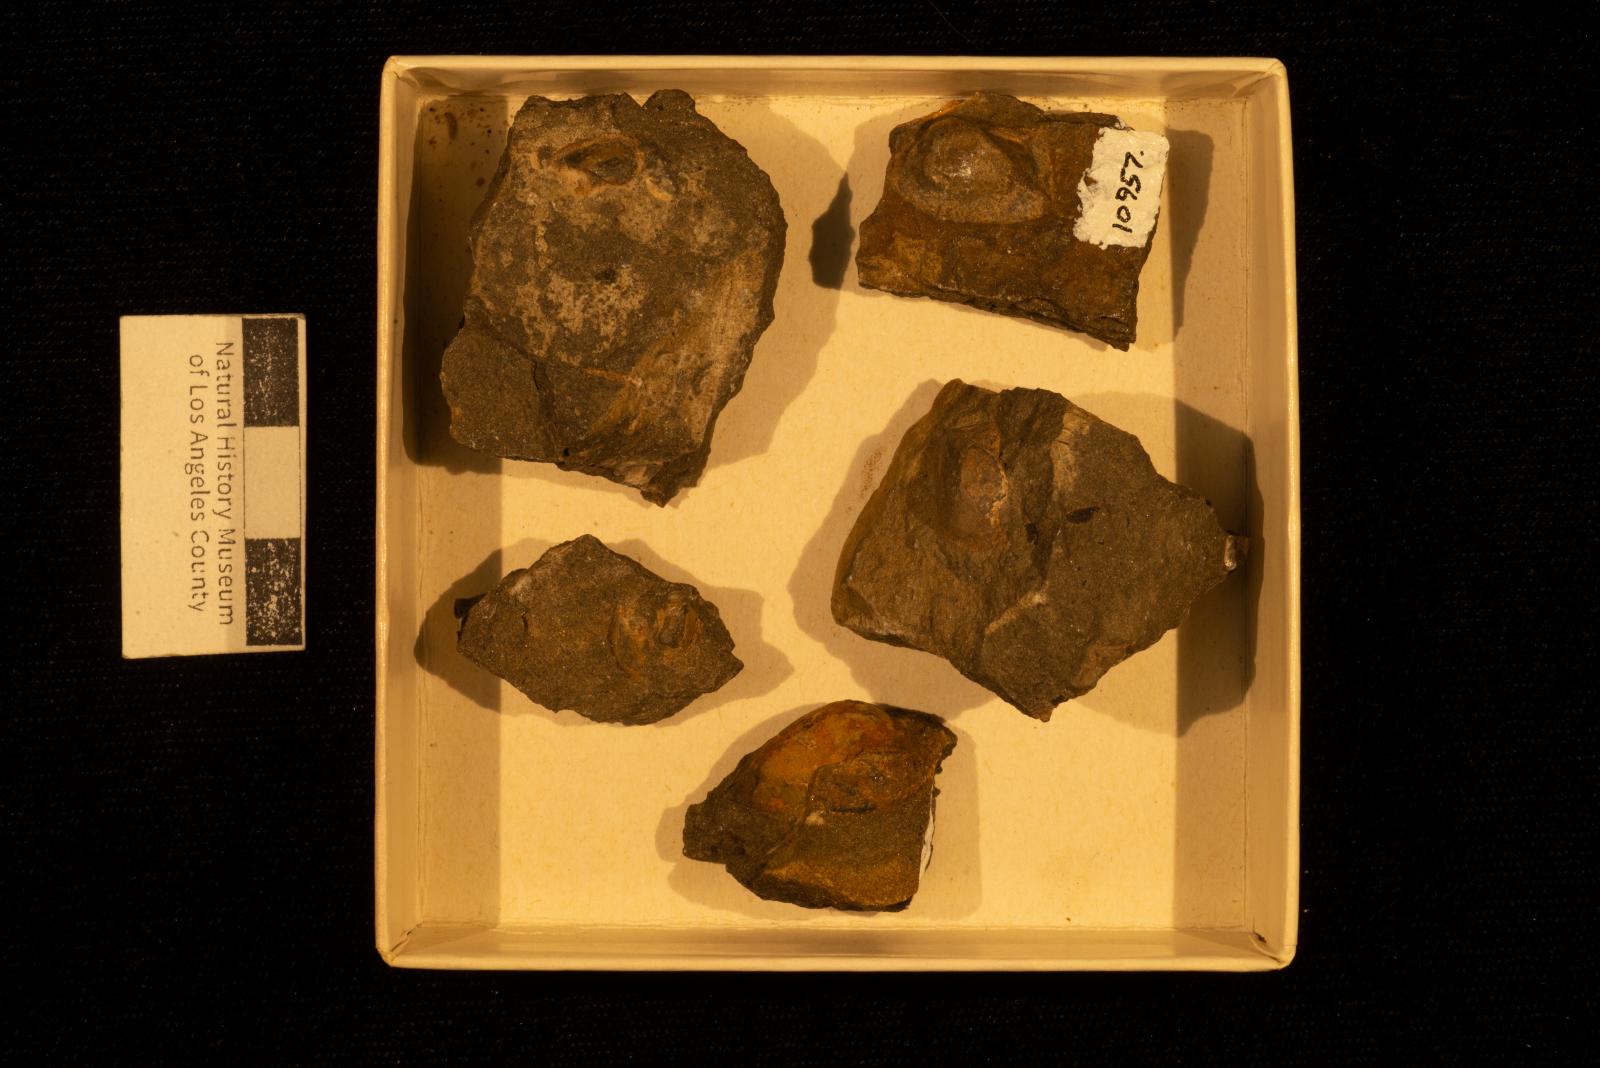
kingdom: Animalia
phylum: Mollusca
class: Bivalvia
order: Arcida
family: Arcidae
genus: Indogrammatodon
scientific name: Indogrammatodon Arca vancouverensis
